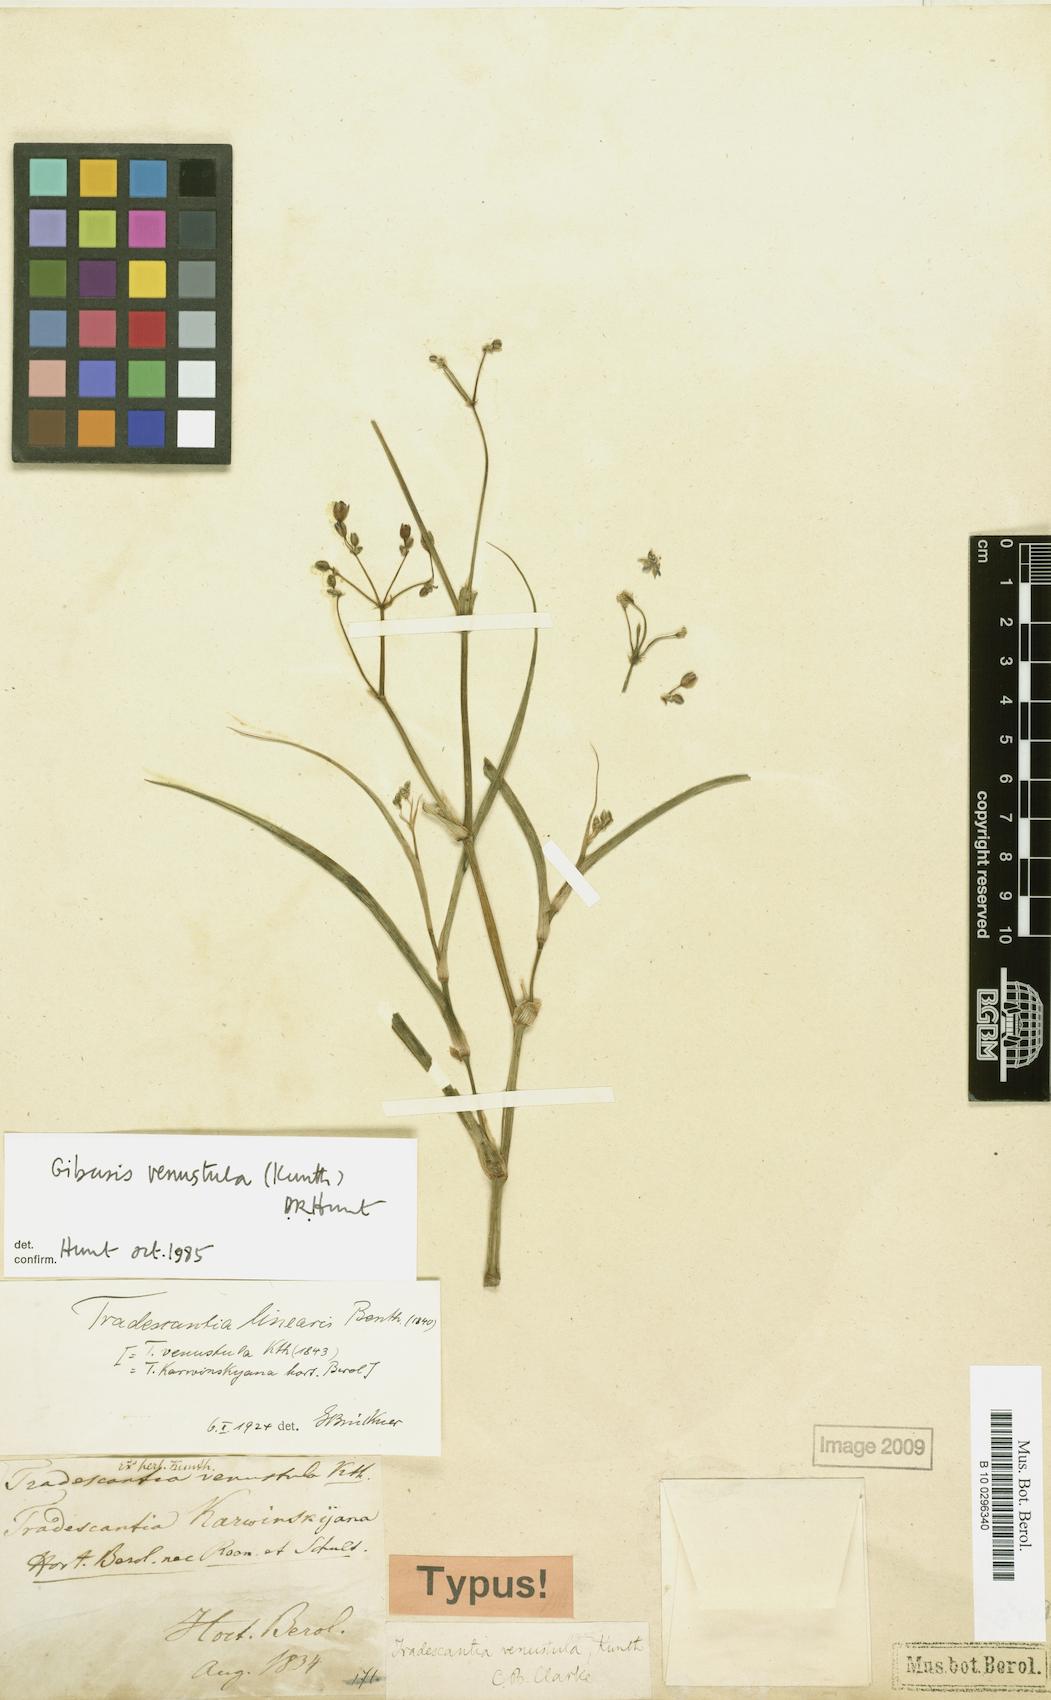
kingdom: Plantae
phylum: Tracheophyta
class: Liliopsida
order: Commelinales
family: Commelinaceae
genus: Gibasis
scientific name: Gibasis venustula
